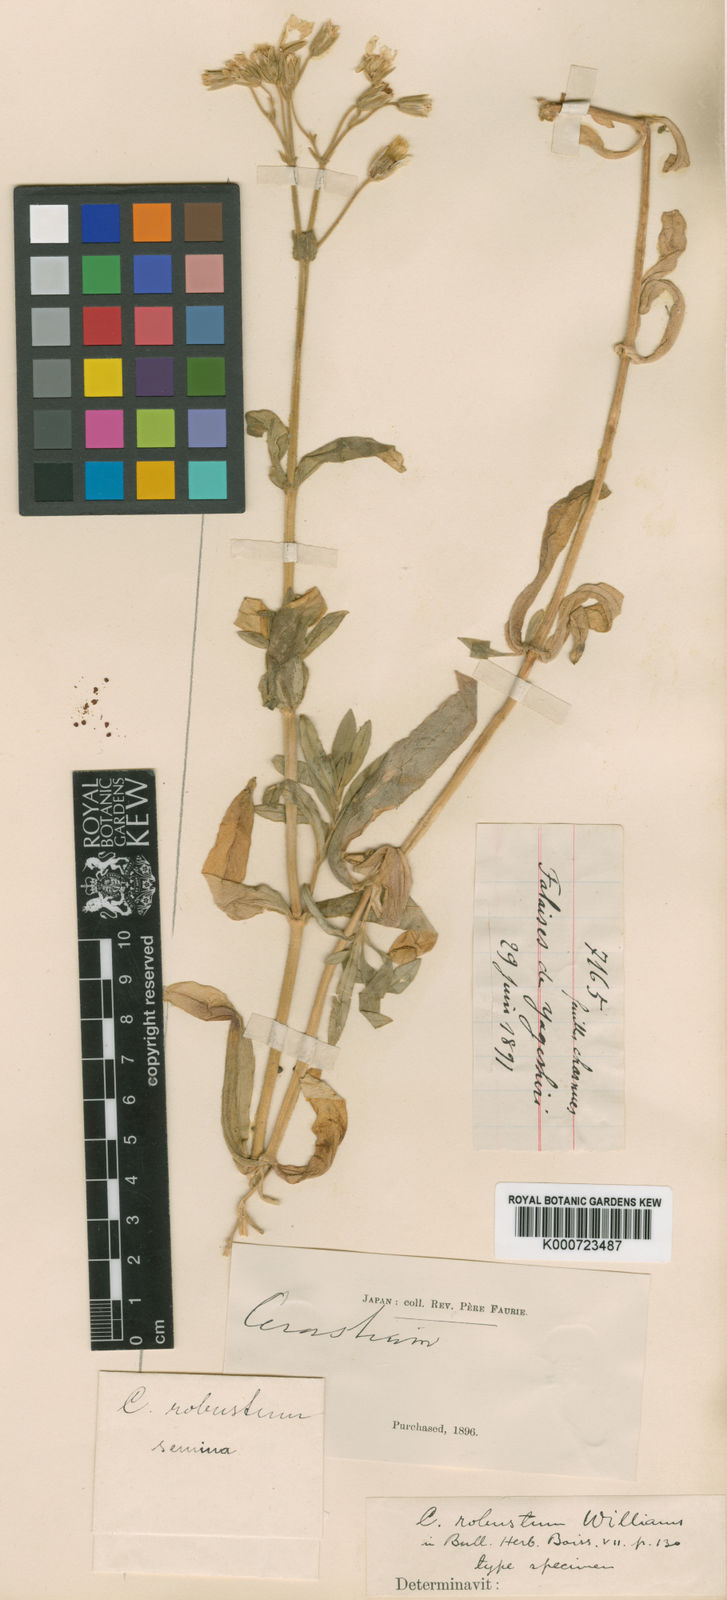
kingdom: Plantae
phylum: Tracheophyta
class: Magnoliopsida
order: Caryophyllales
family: Caryophyllaceae
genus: Cerastium
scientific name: Cerastium fischerianum
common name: Fischer's chickweed
